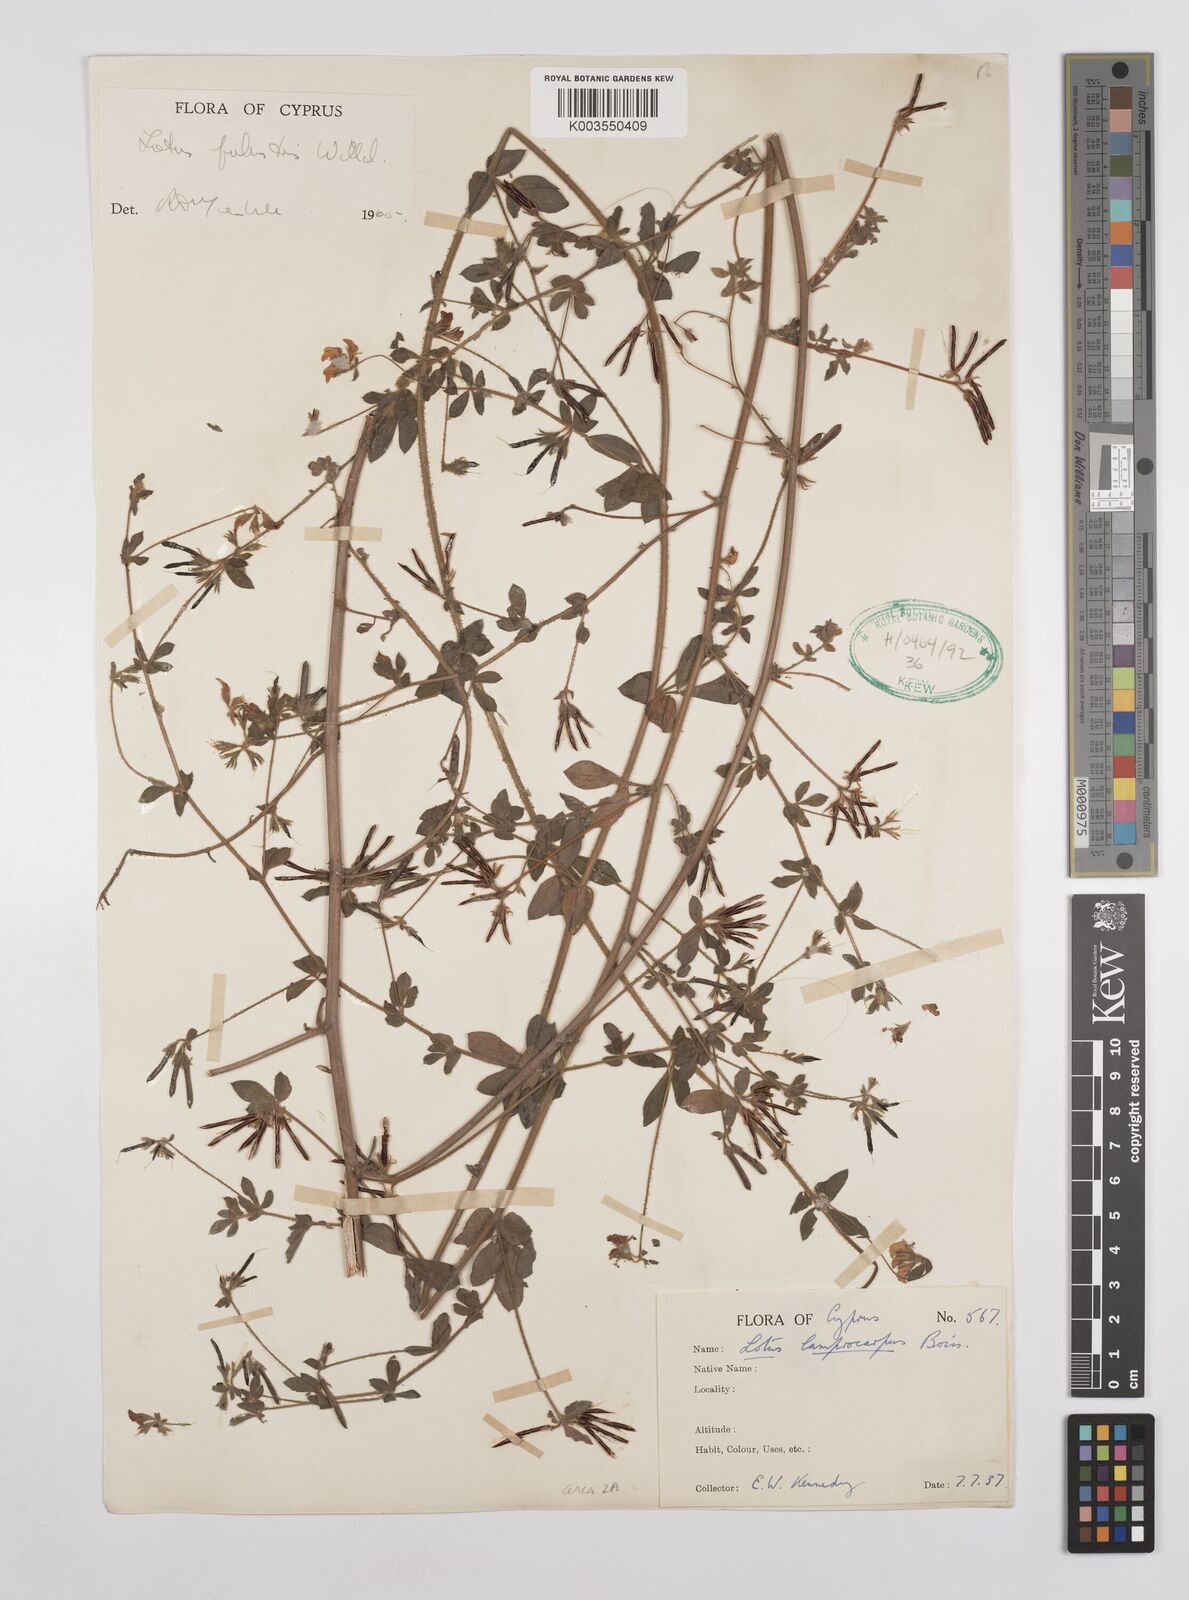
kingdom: Plantae
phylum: Tracheophyta
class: Magnoliopsida
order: Fabales
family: Fabaceae
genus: Lotus
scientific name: Lotus palustris
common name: Large birds-foot trefoil
